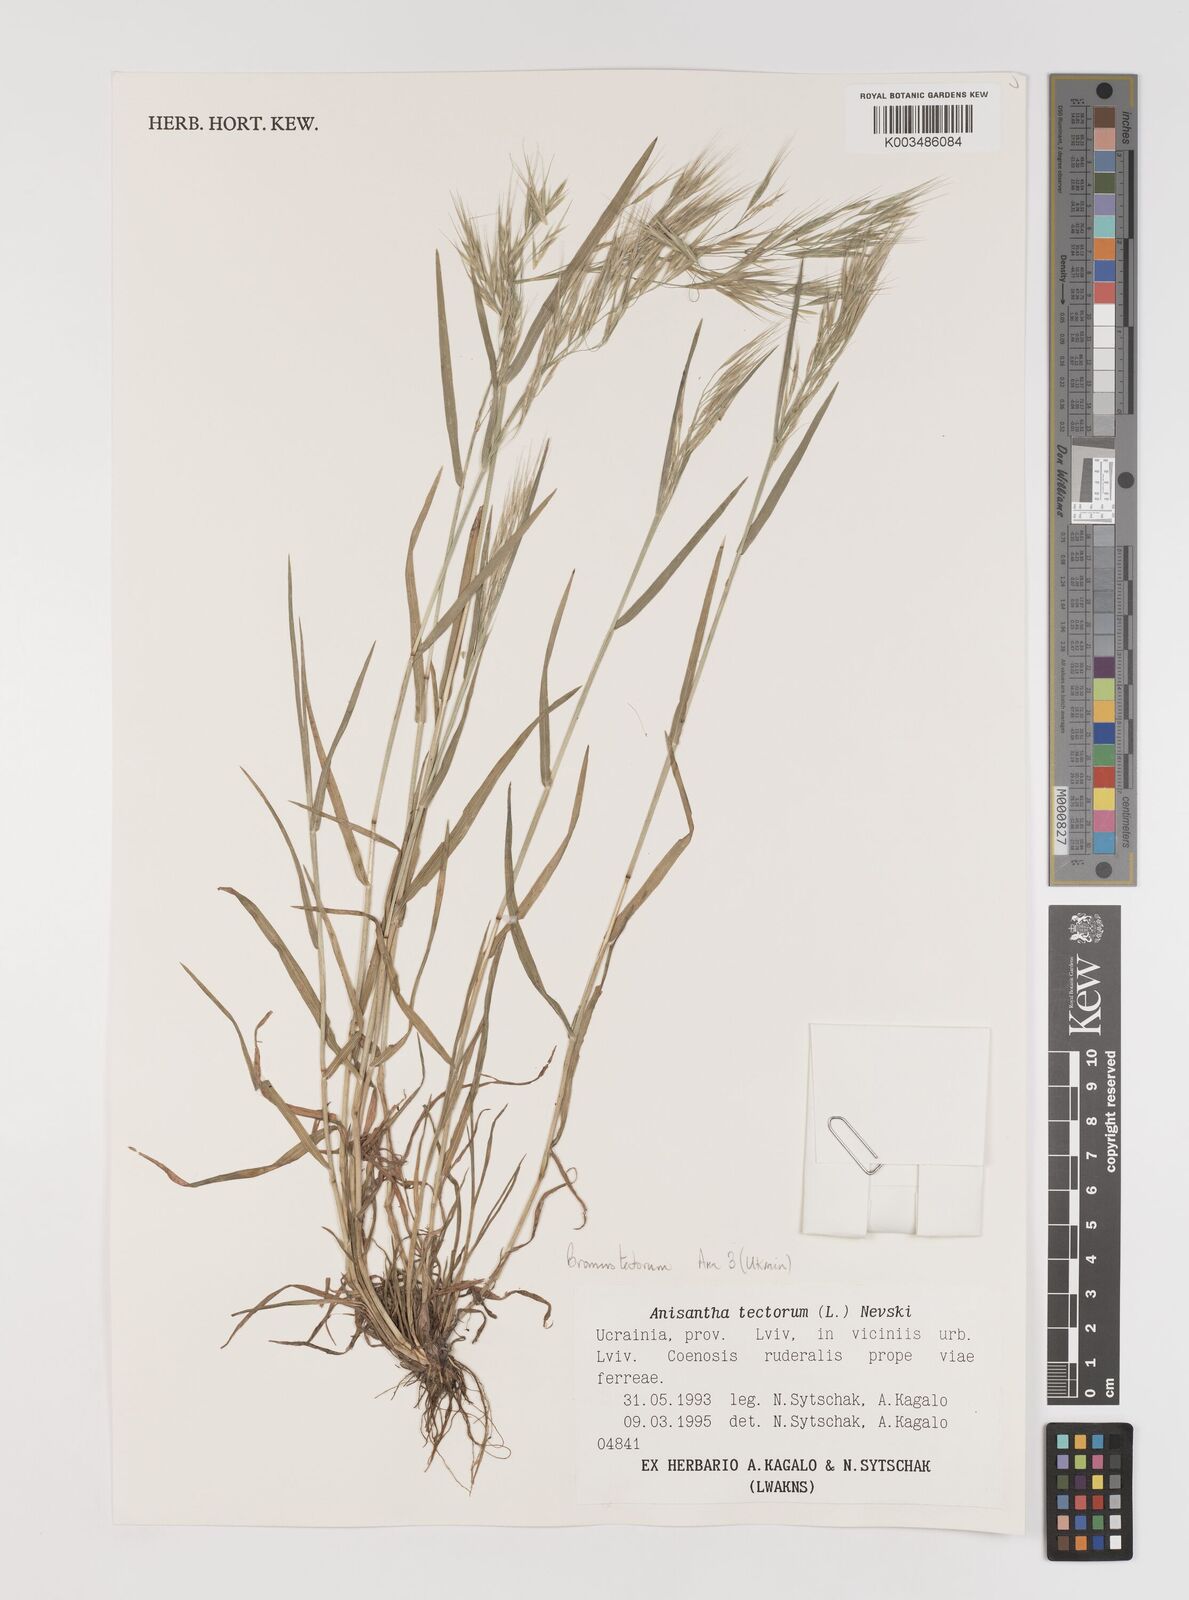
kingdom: Plantae
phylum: Tracheophyta
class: Liliopsida
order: Poales
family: Poaceae
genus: Bromus
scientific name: Bromus tectorum
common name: Cheatgrass
